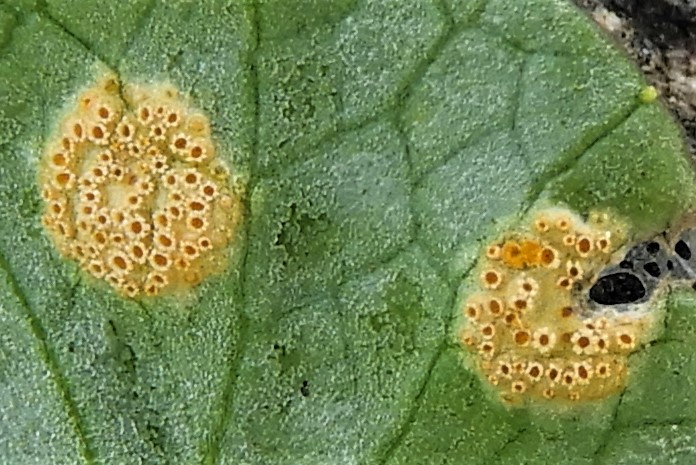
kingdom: Fungi
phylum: Basidiomycota
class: Pucciniomycetes
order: Pucciniales
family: Pucciniaceae
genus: Uromyces
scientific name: Uromyces dactylidis
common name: ranunkel-encellerust
